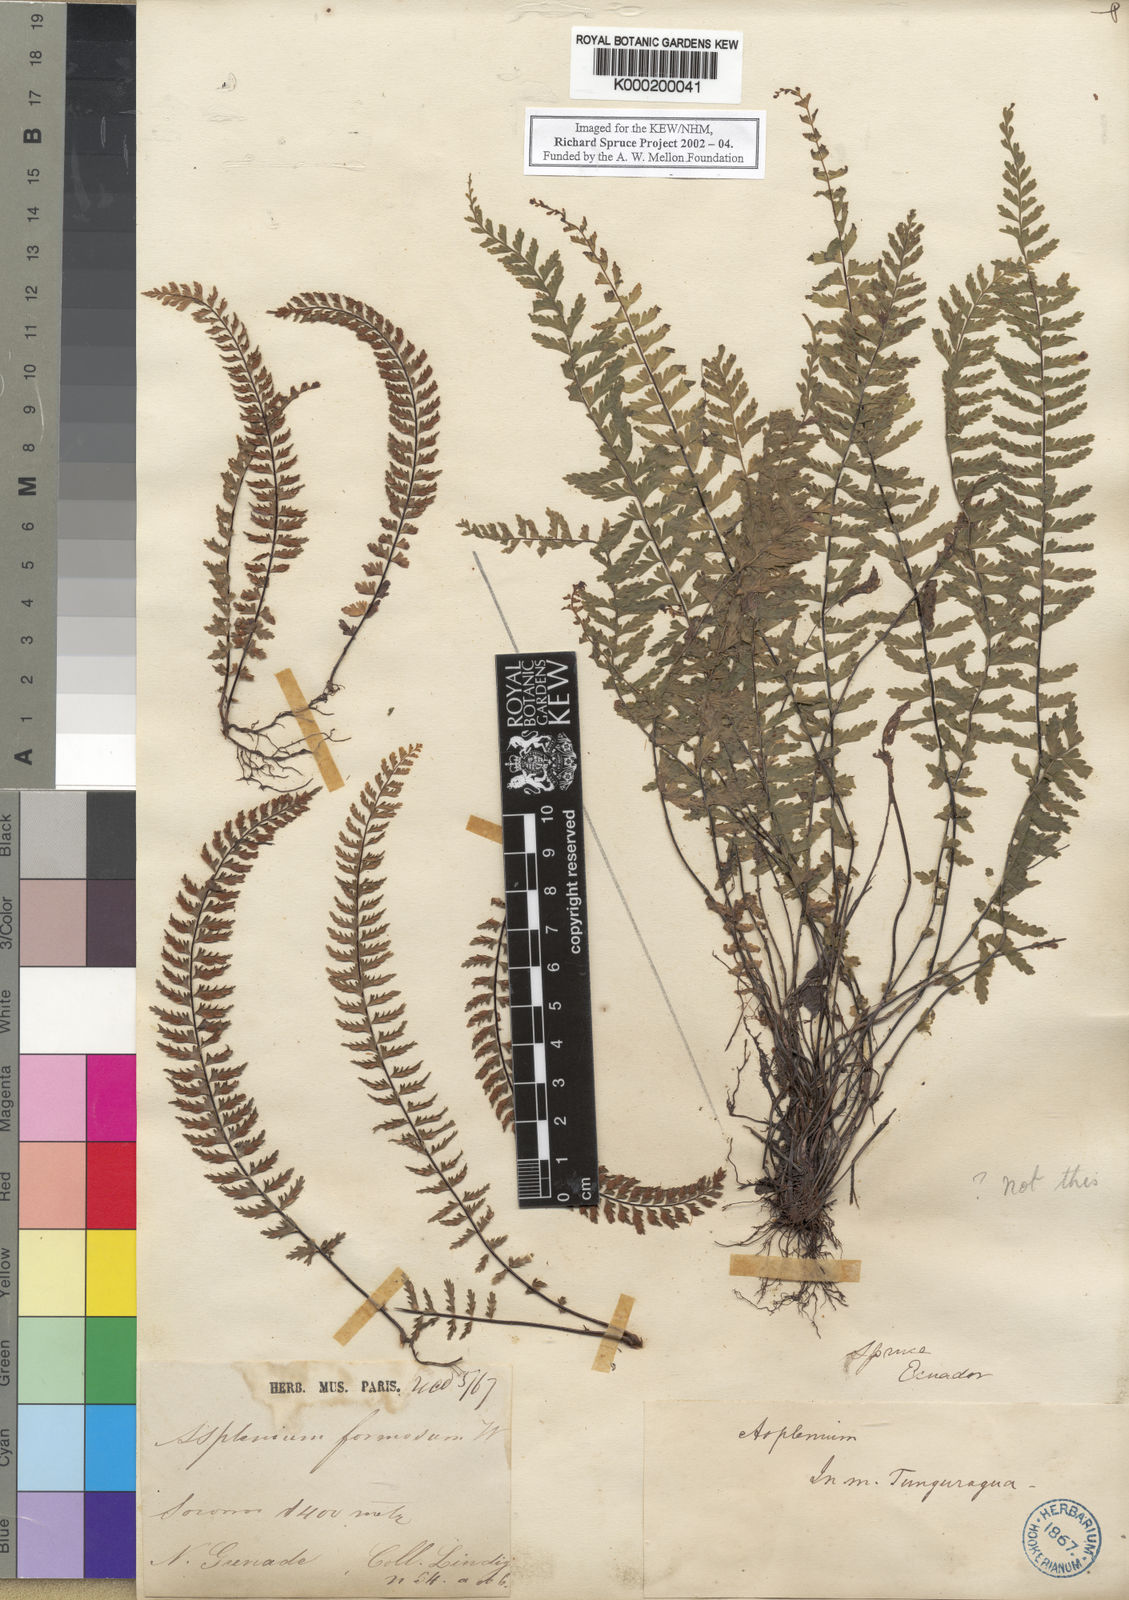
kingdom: Plantae
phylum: Tracheophyta
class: Polypodiopsida
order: Polypodiales
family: Aspleniaceae
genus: Asplenium
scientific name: Asplenium formosum
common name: Showy spleenwort
